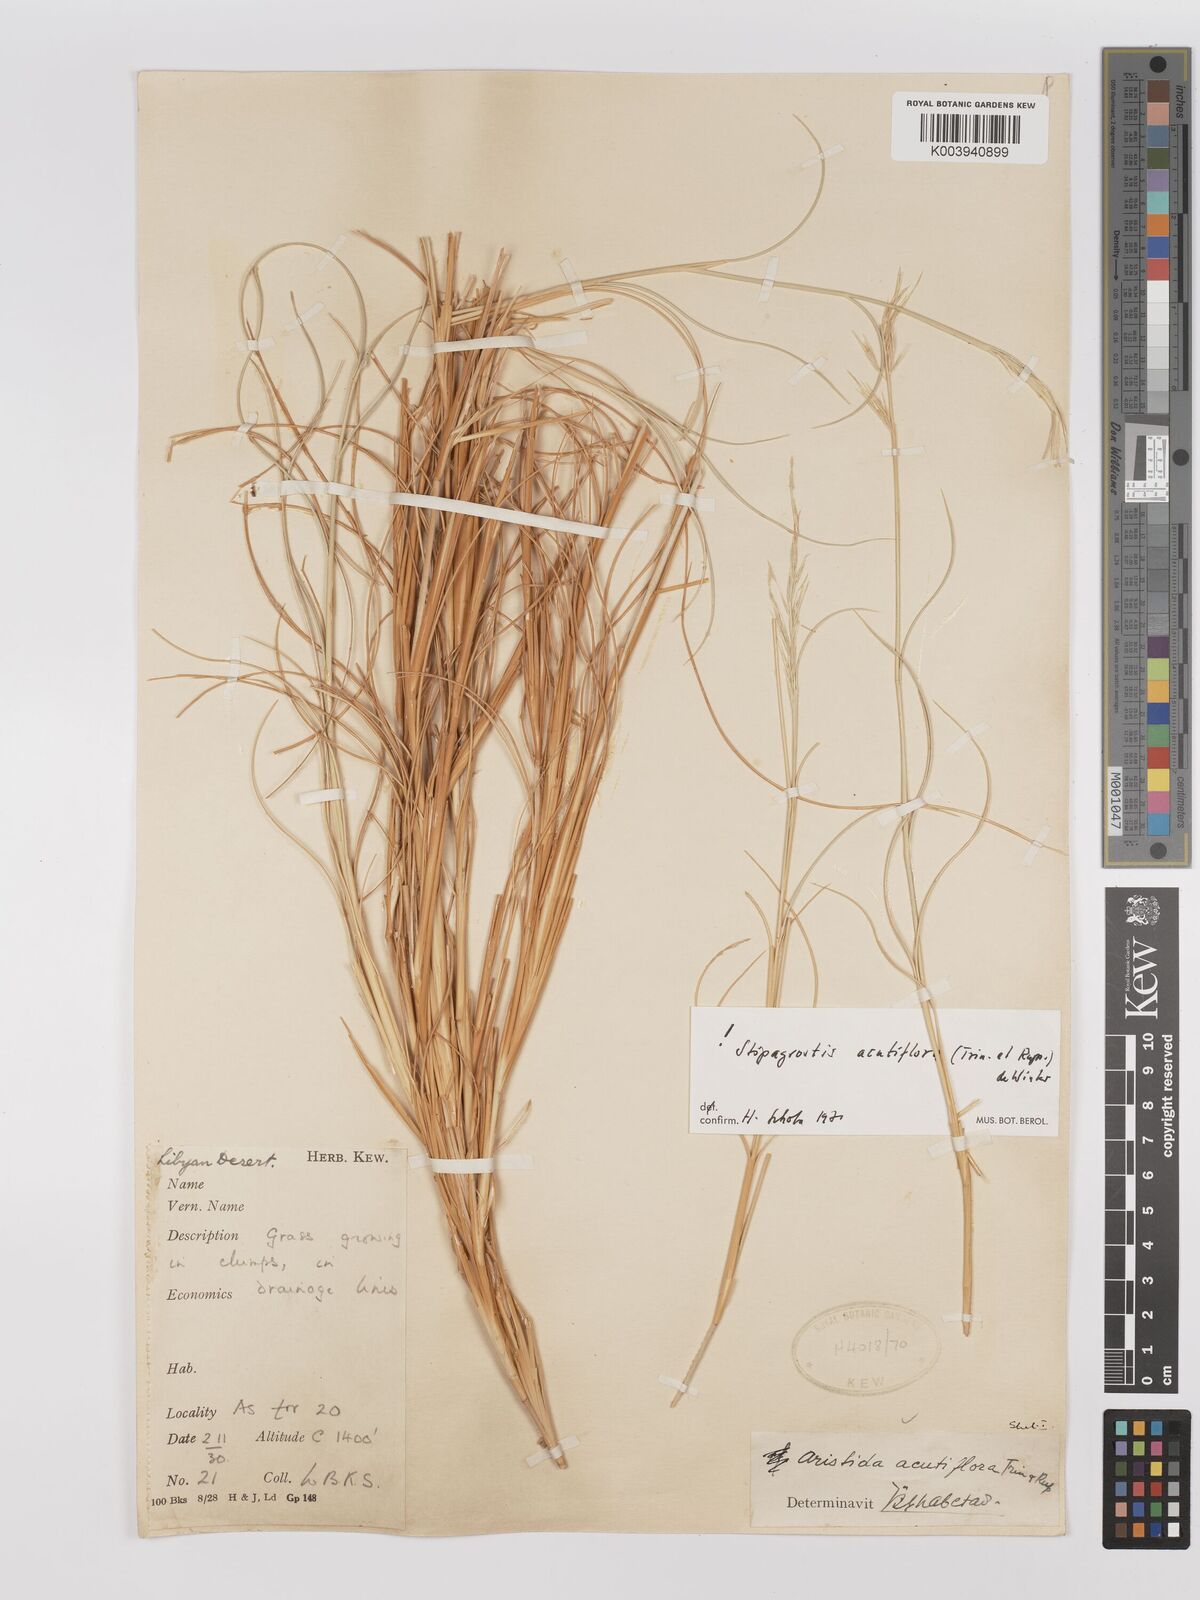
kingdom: Plantae
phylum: Tracheophyta
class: Liliopsida
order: Poales
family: Poaceae
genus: Stipagrostis
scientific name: Stipagrostis acutiflora
